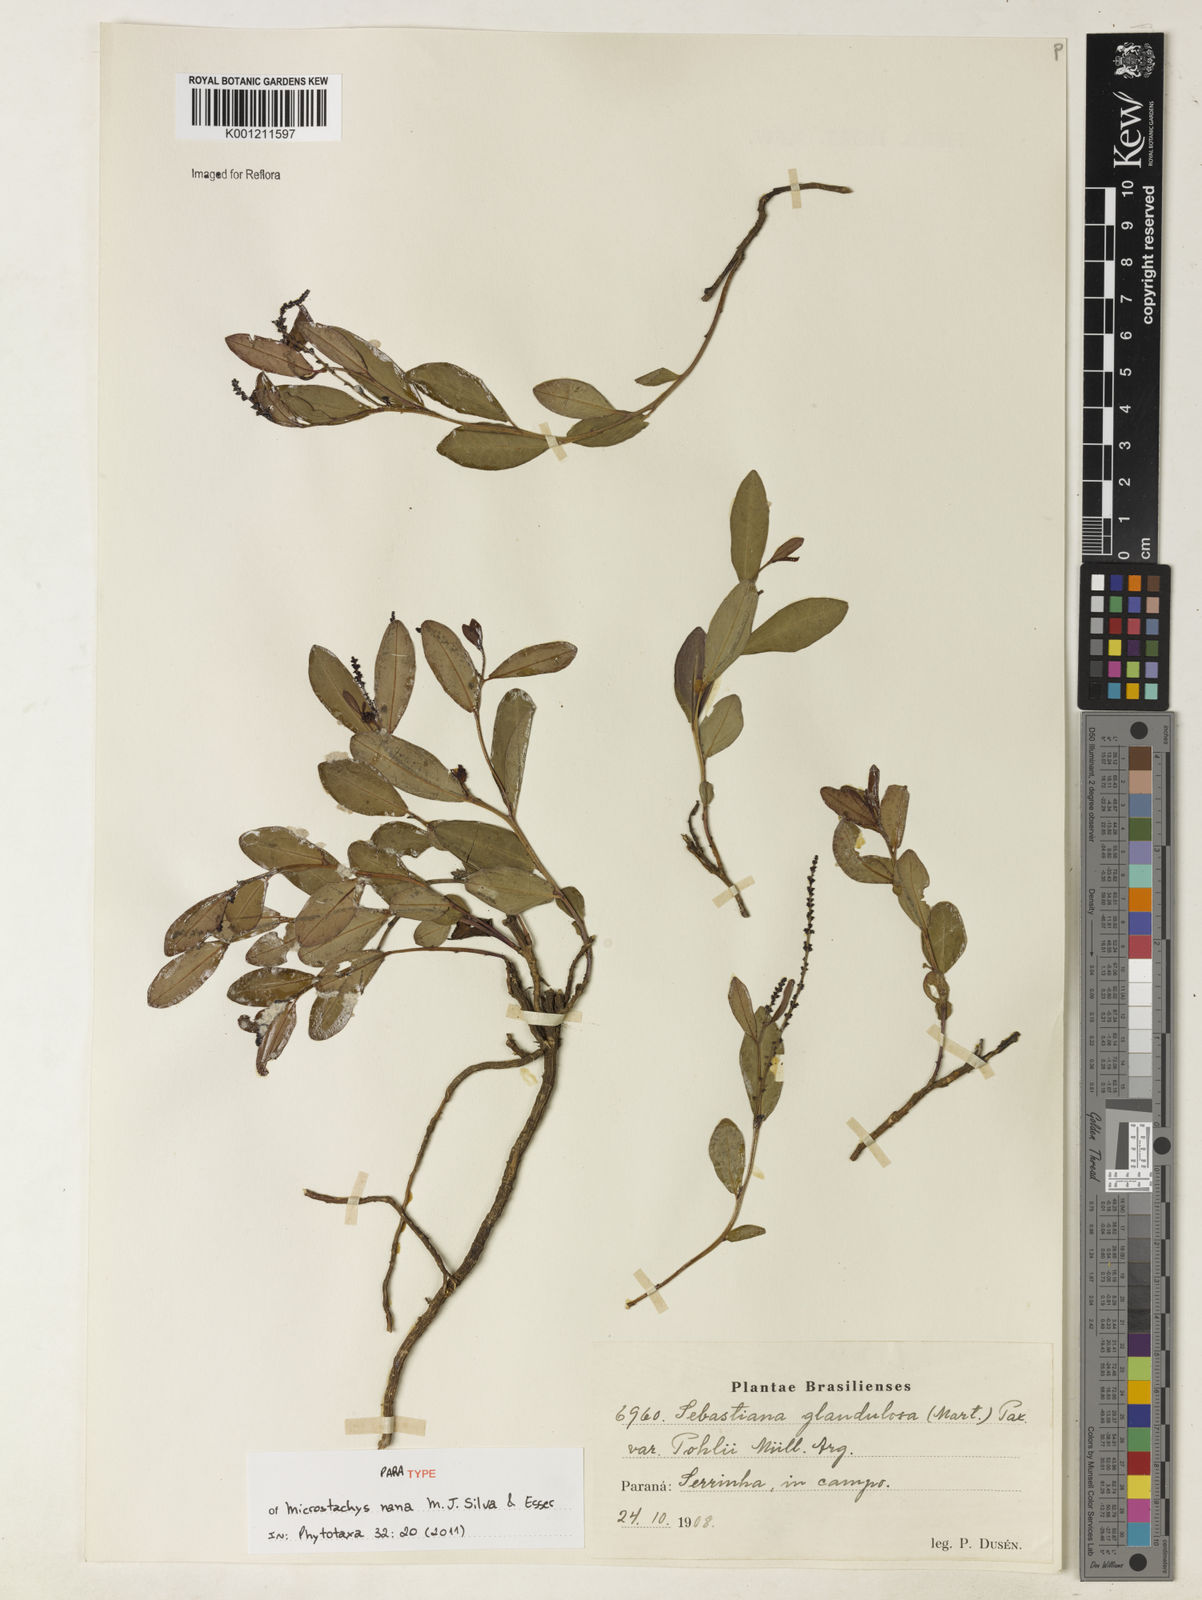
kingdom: Plantae
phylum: Tracheophyta
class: Magnoliopsida
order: Malpighiales
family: Euphorbiaceae
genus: Microstachys
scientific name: Microstachys nana
